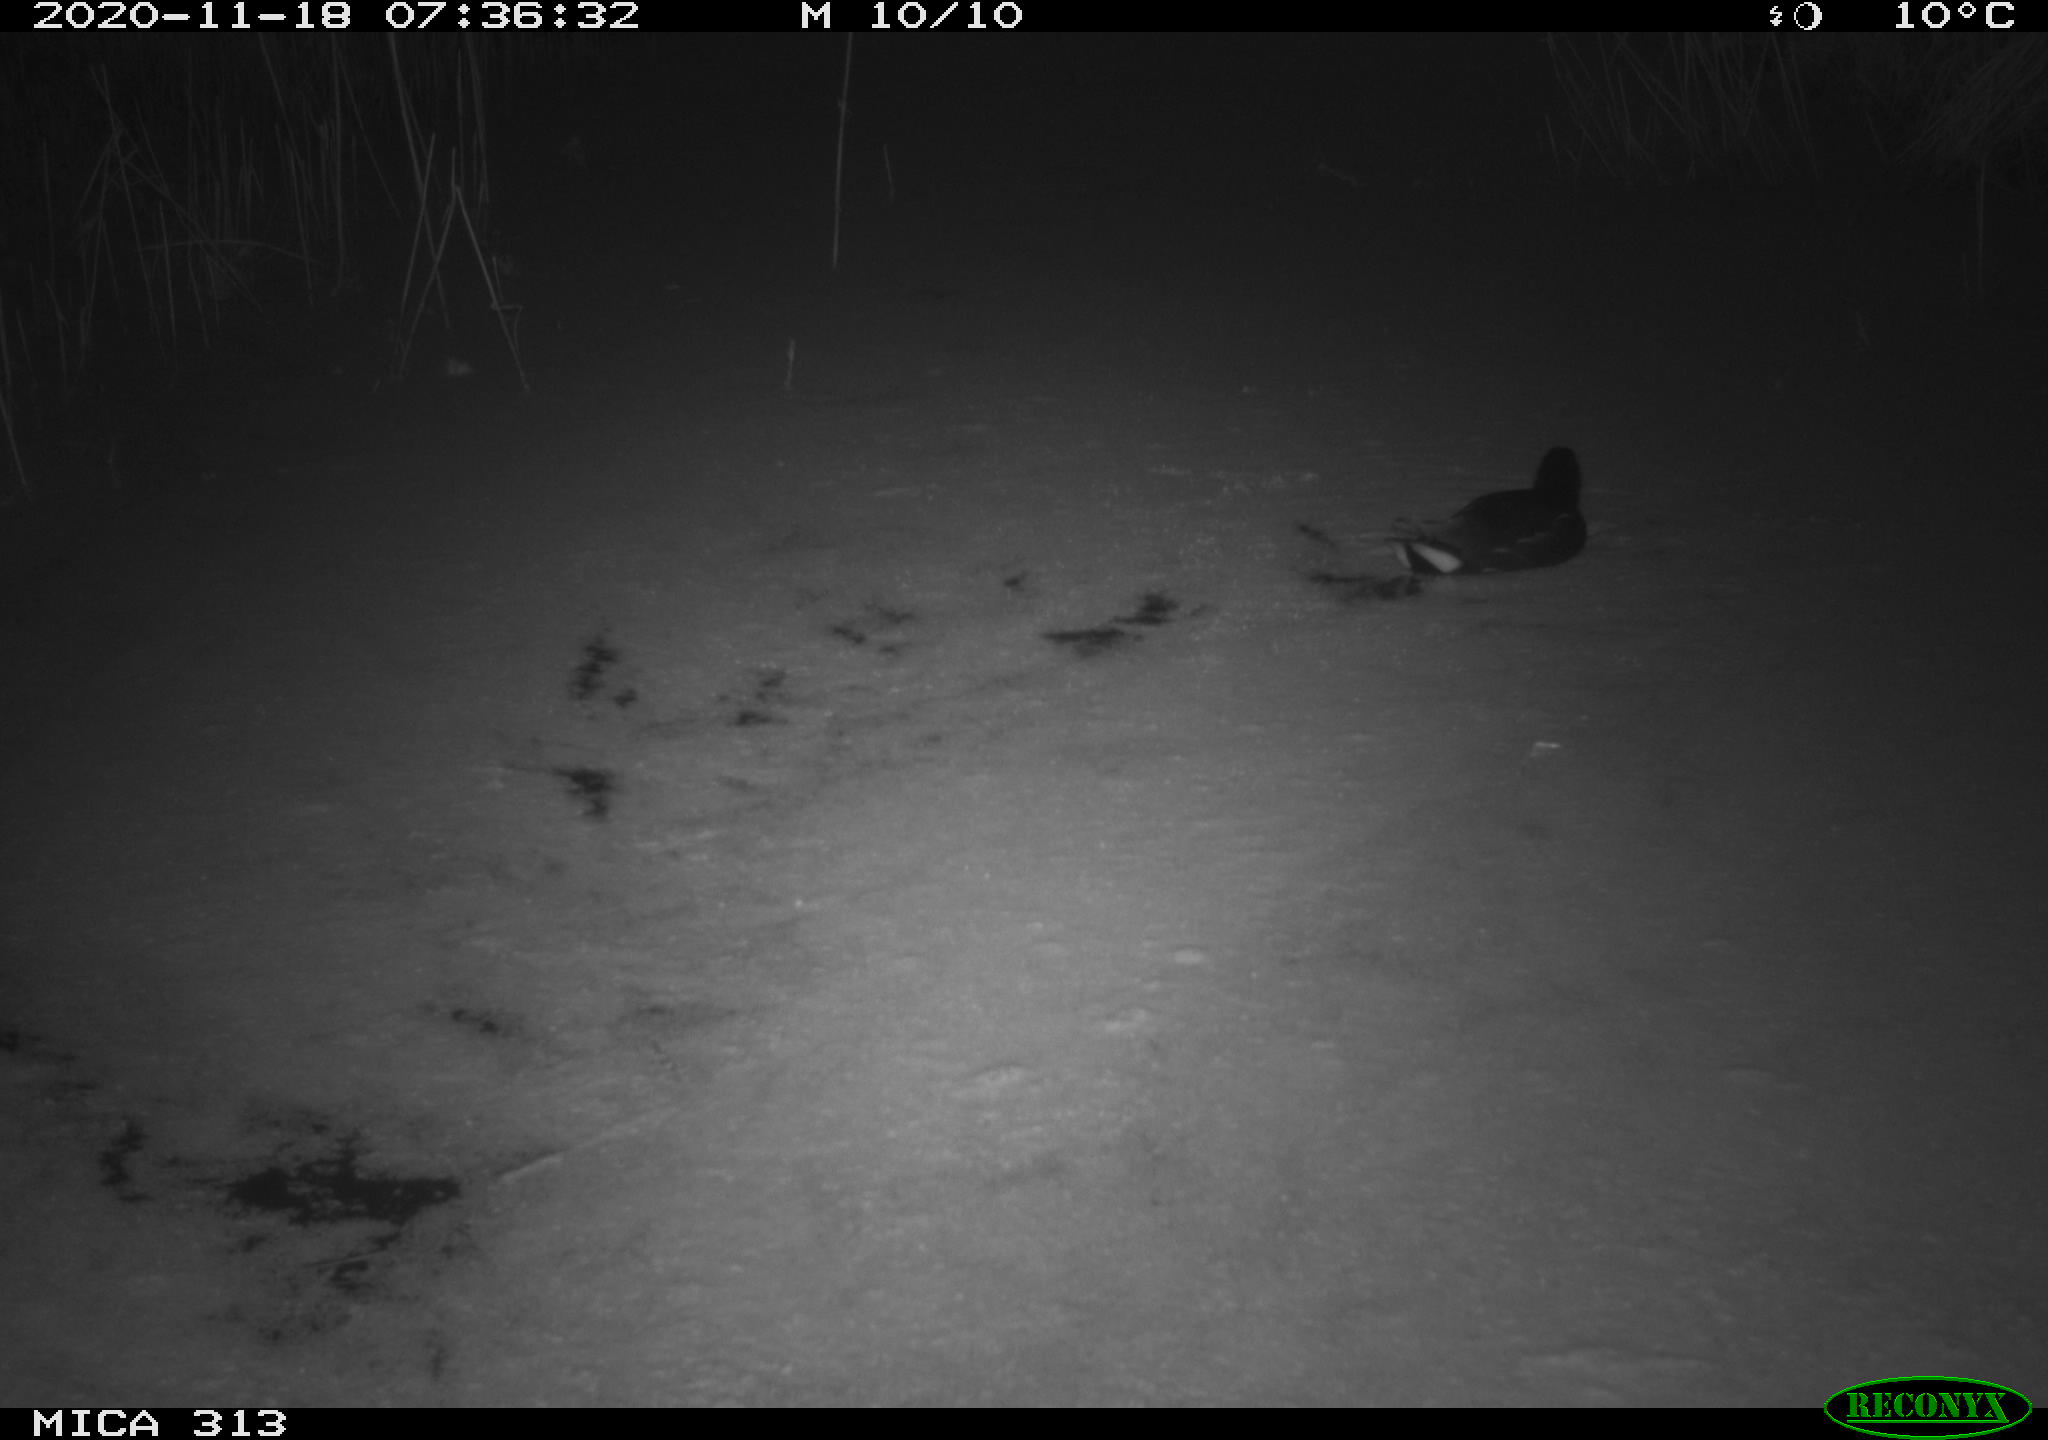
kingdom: Animalia
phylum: Chordata
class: Aves
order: Gruiformes
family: Rallidae
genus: Gallinula
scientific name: Gallinula chloropus
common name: Common moorhen
